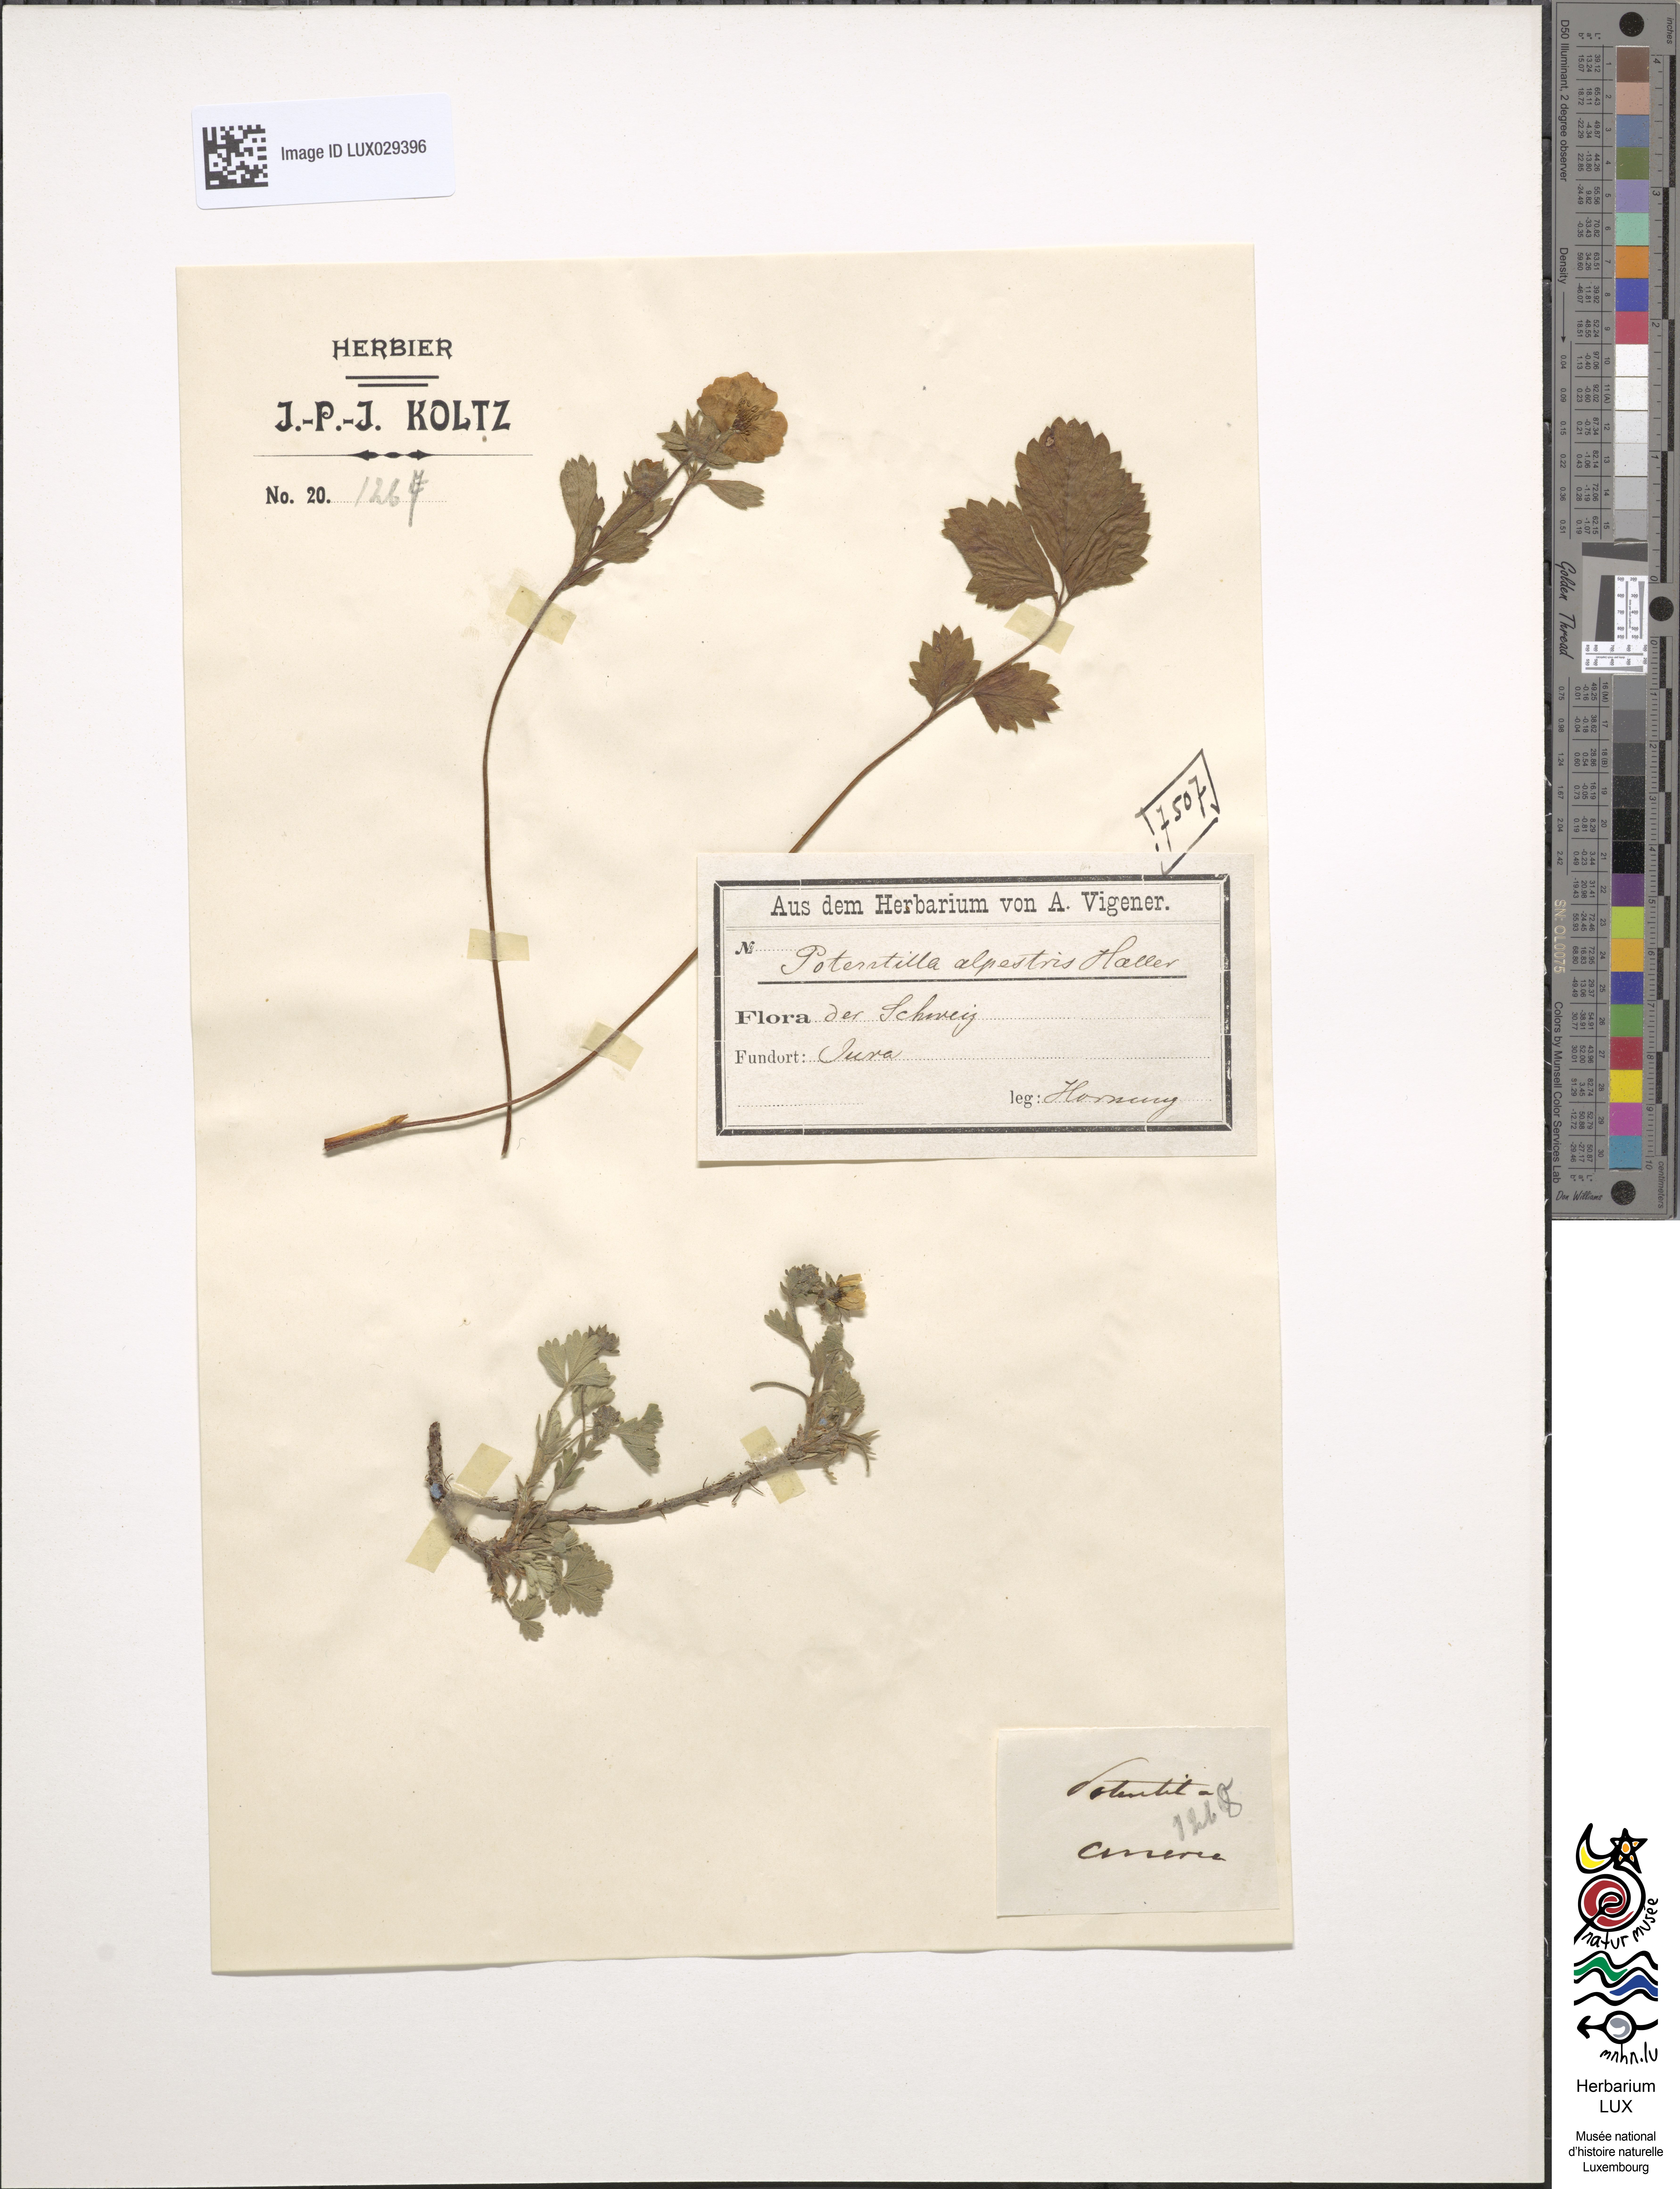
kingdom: Plantae
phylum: Tracheophyta
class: Magnoliopsida
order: Rosales
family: Rosaceae
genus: Potentilla
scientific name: Potentilla crantzii
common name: Alpine cinquefoil
